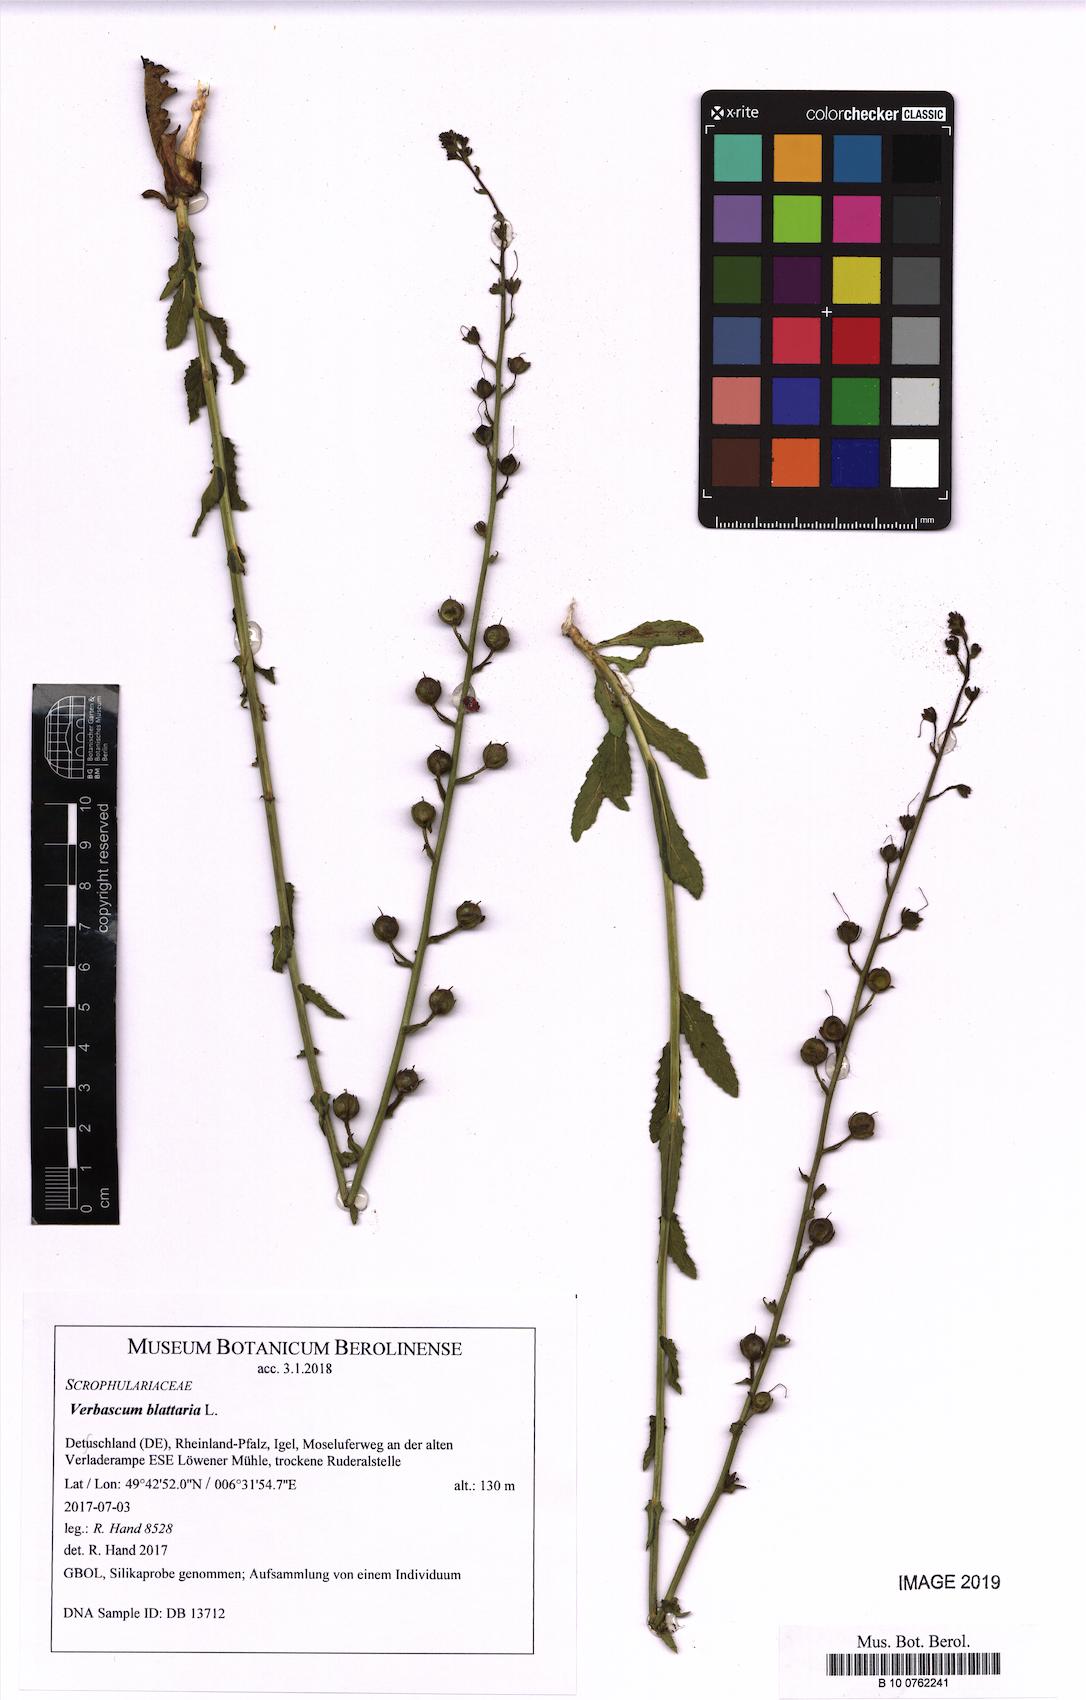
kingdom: Plantae
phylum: Tracheophyta
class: Magnoliopsida
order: Lamiales
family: Scrophulariaceae
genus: Verbascum
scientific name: Verbascum blattaria
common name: Moth mullein
